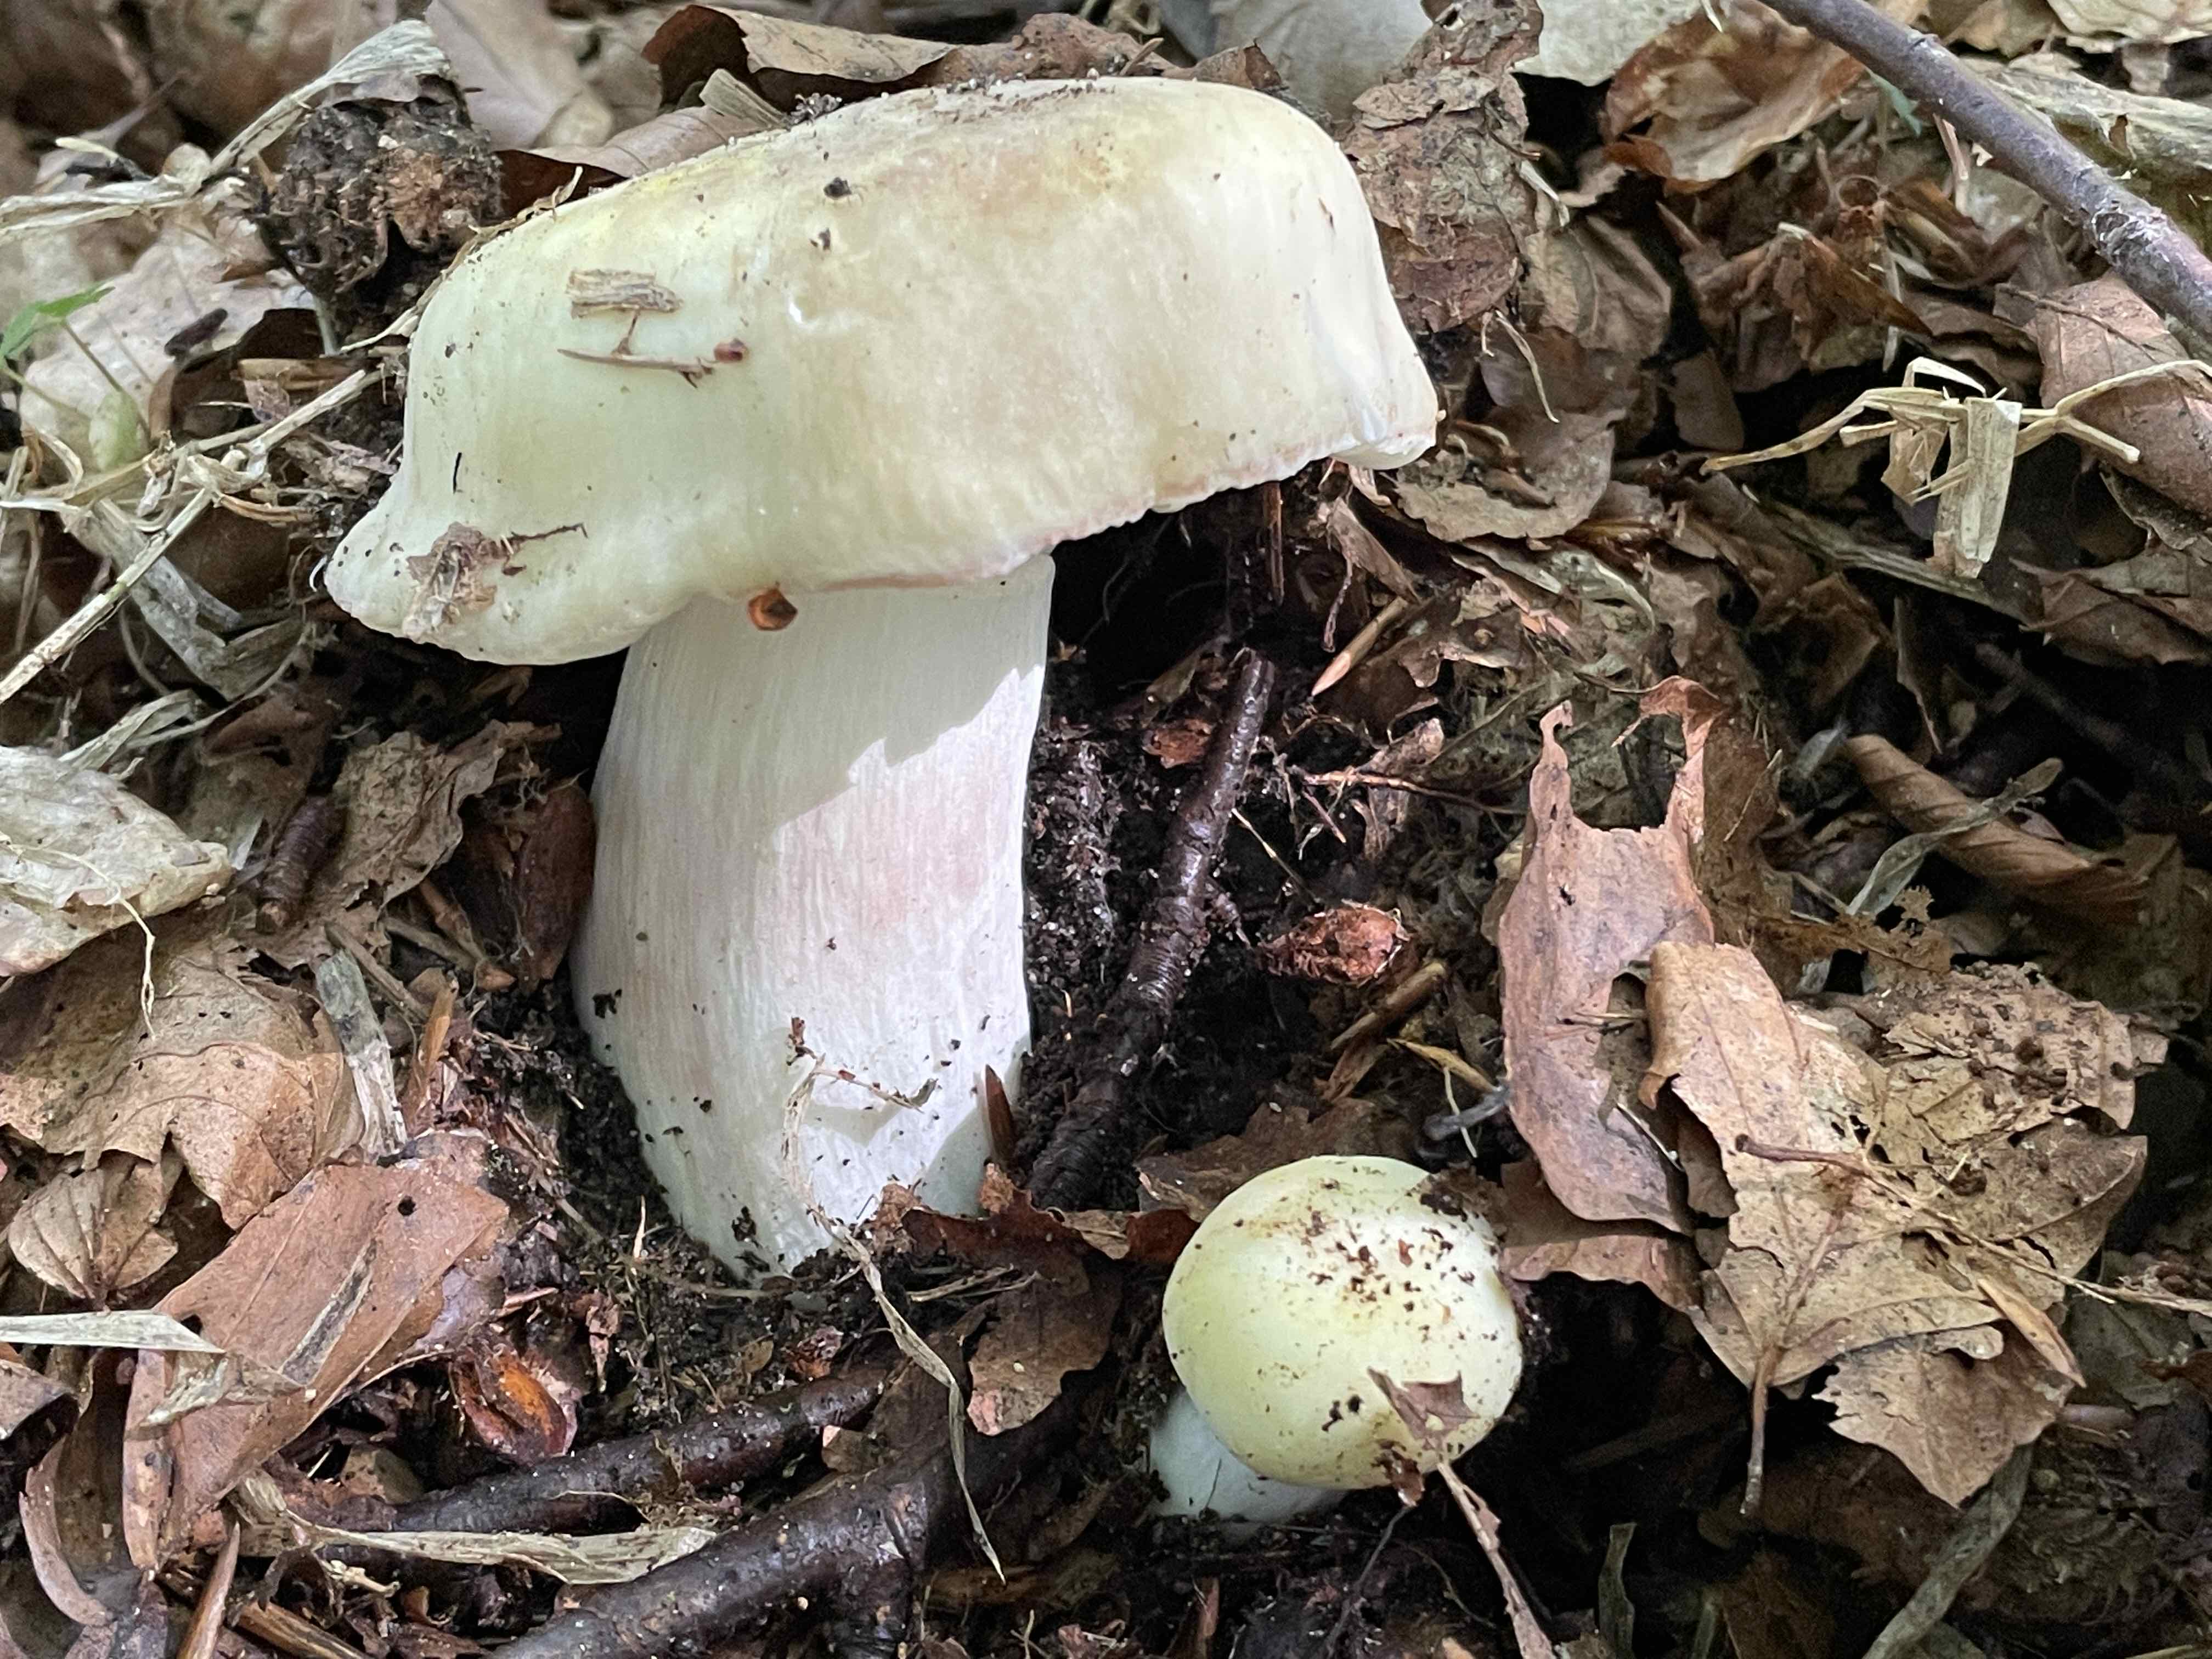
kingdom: Fungi
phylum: Basidiomycota
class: Agaricomycetes
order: Russulales
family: Russulaceae
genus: Russula
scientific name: Russula violeipes
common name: ferskengul skørhat
